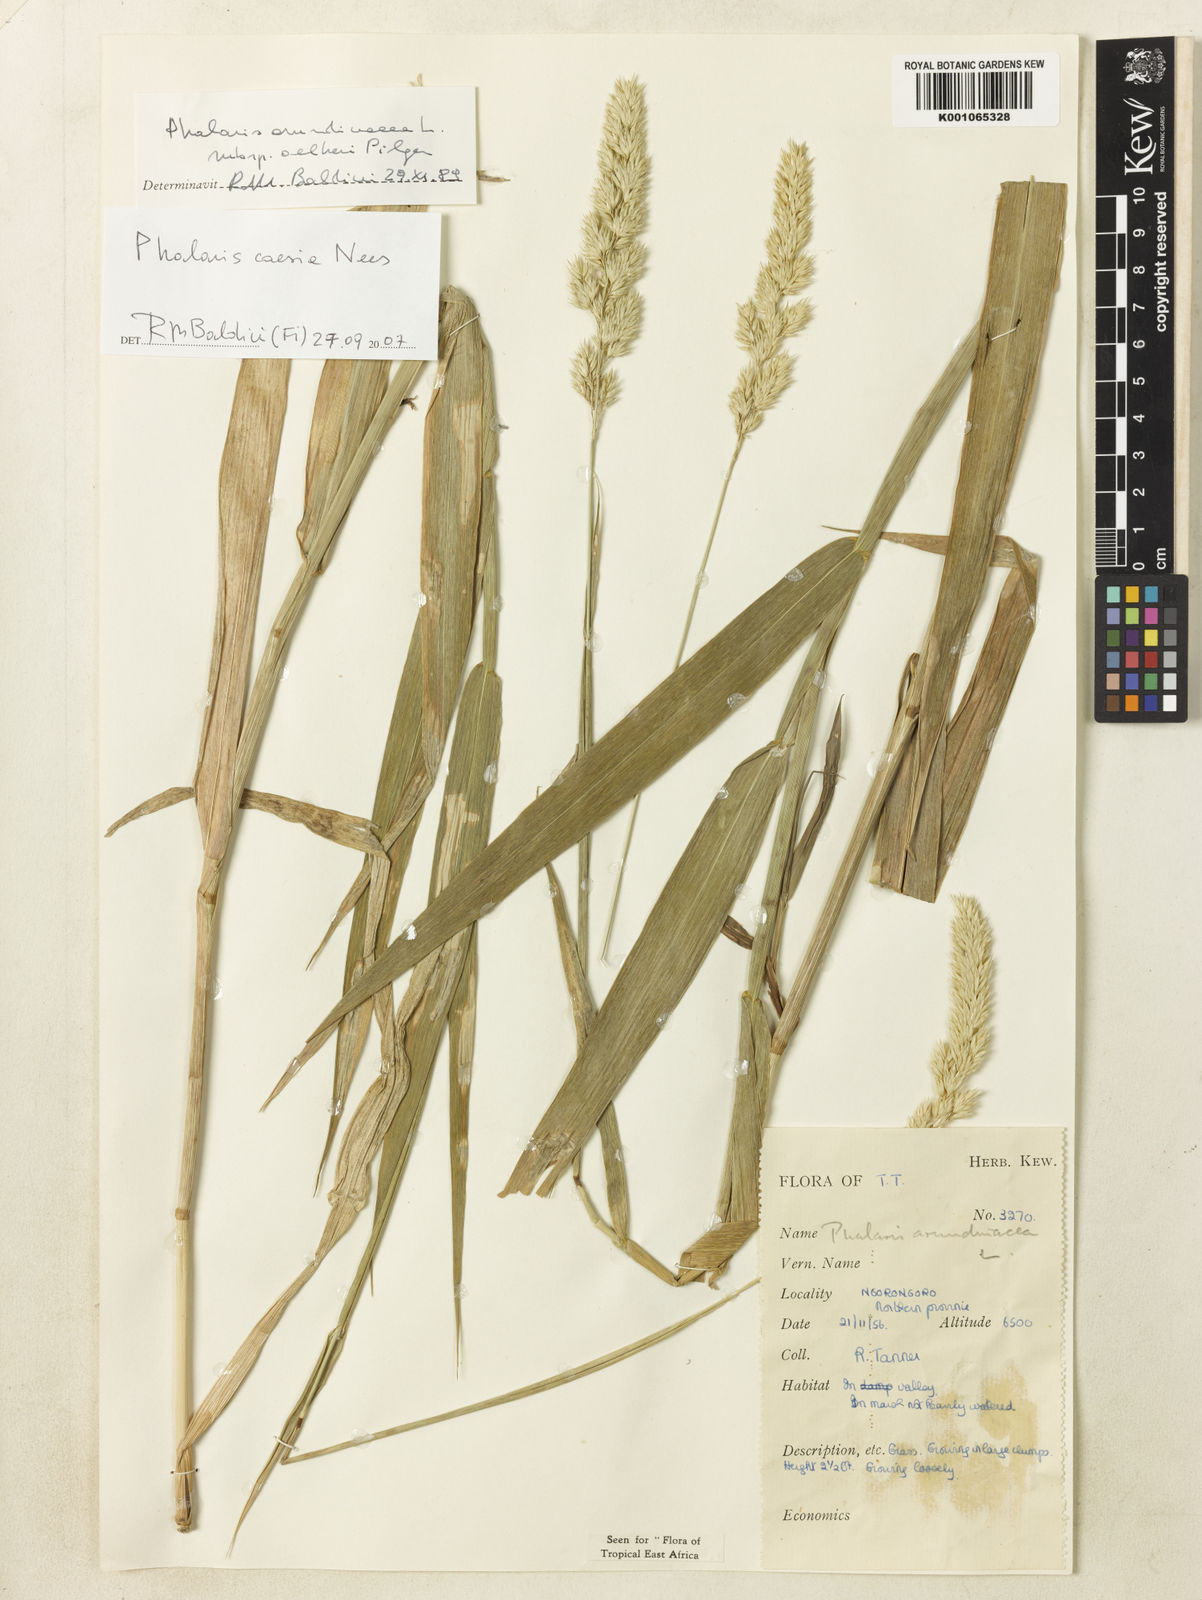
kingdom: Plantae
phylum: Tracheophyta
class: Liliopsida
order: Poales
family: Poaceae
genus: Phalaris
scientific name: Phalaris arundinacea
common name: Reed canary-grass
